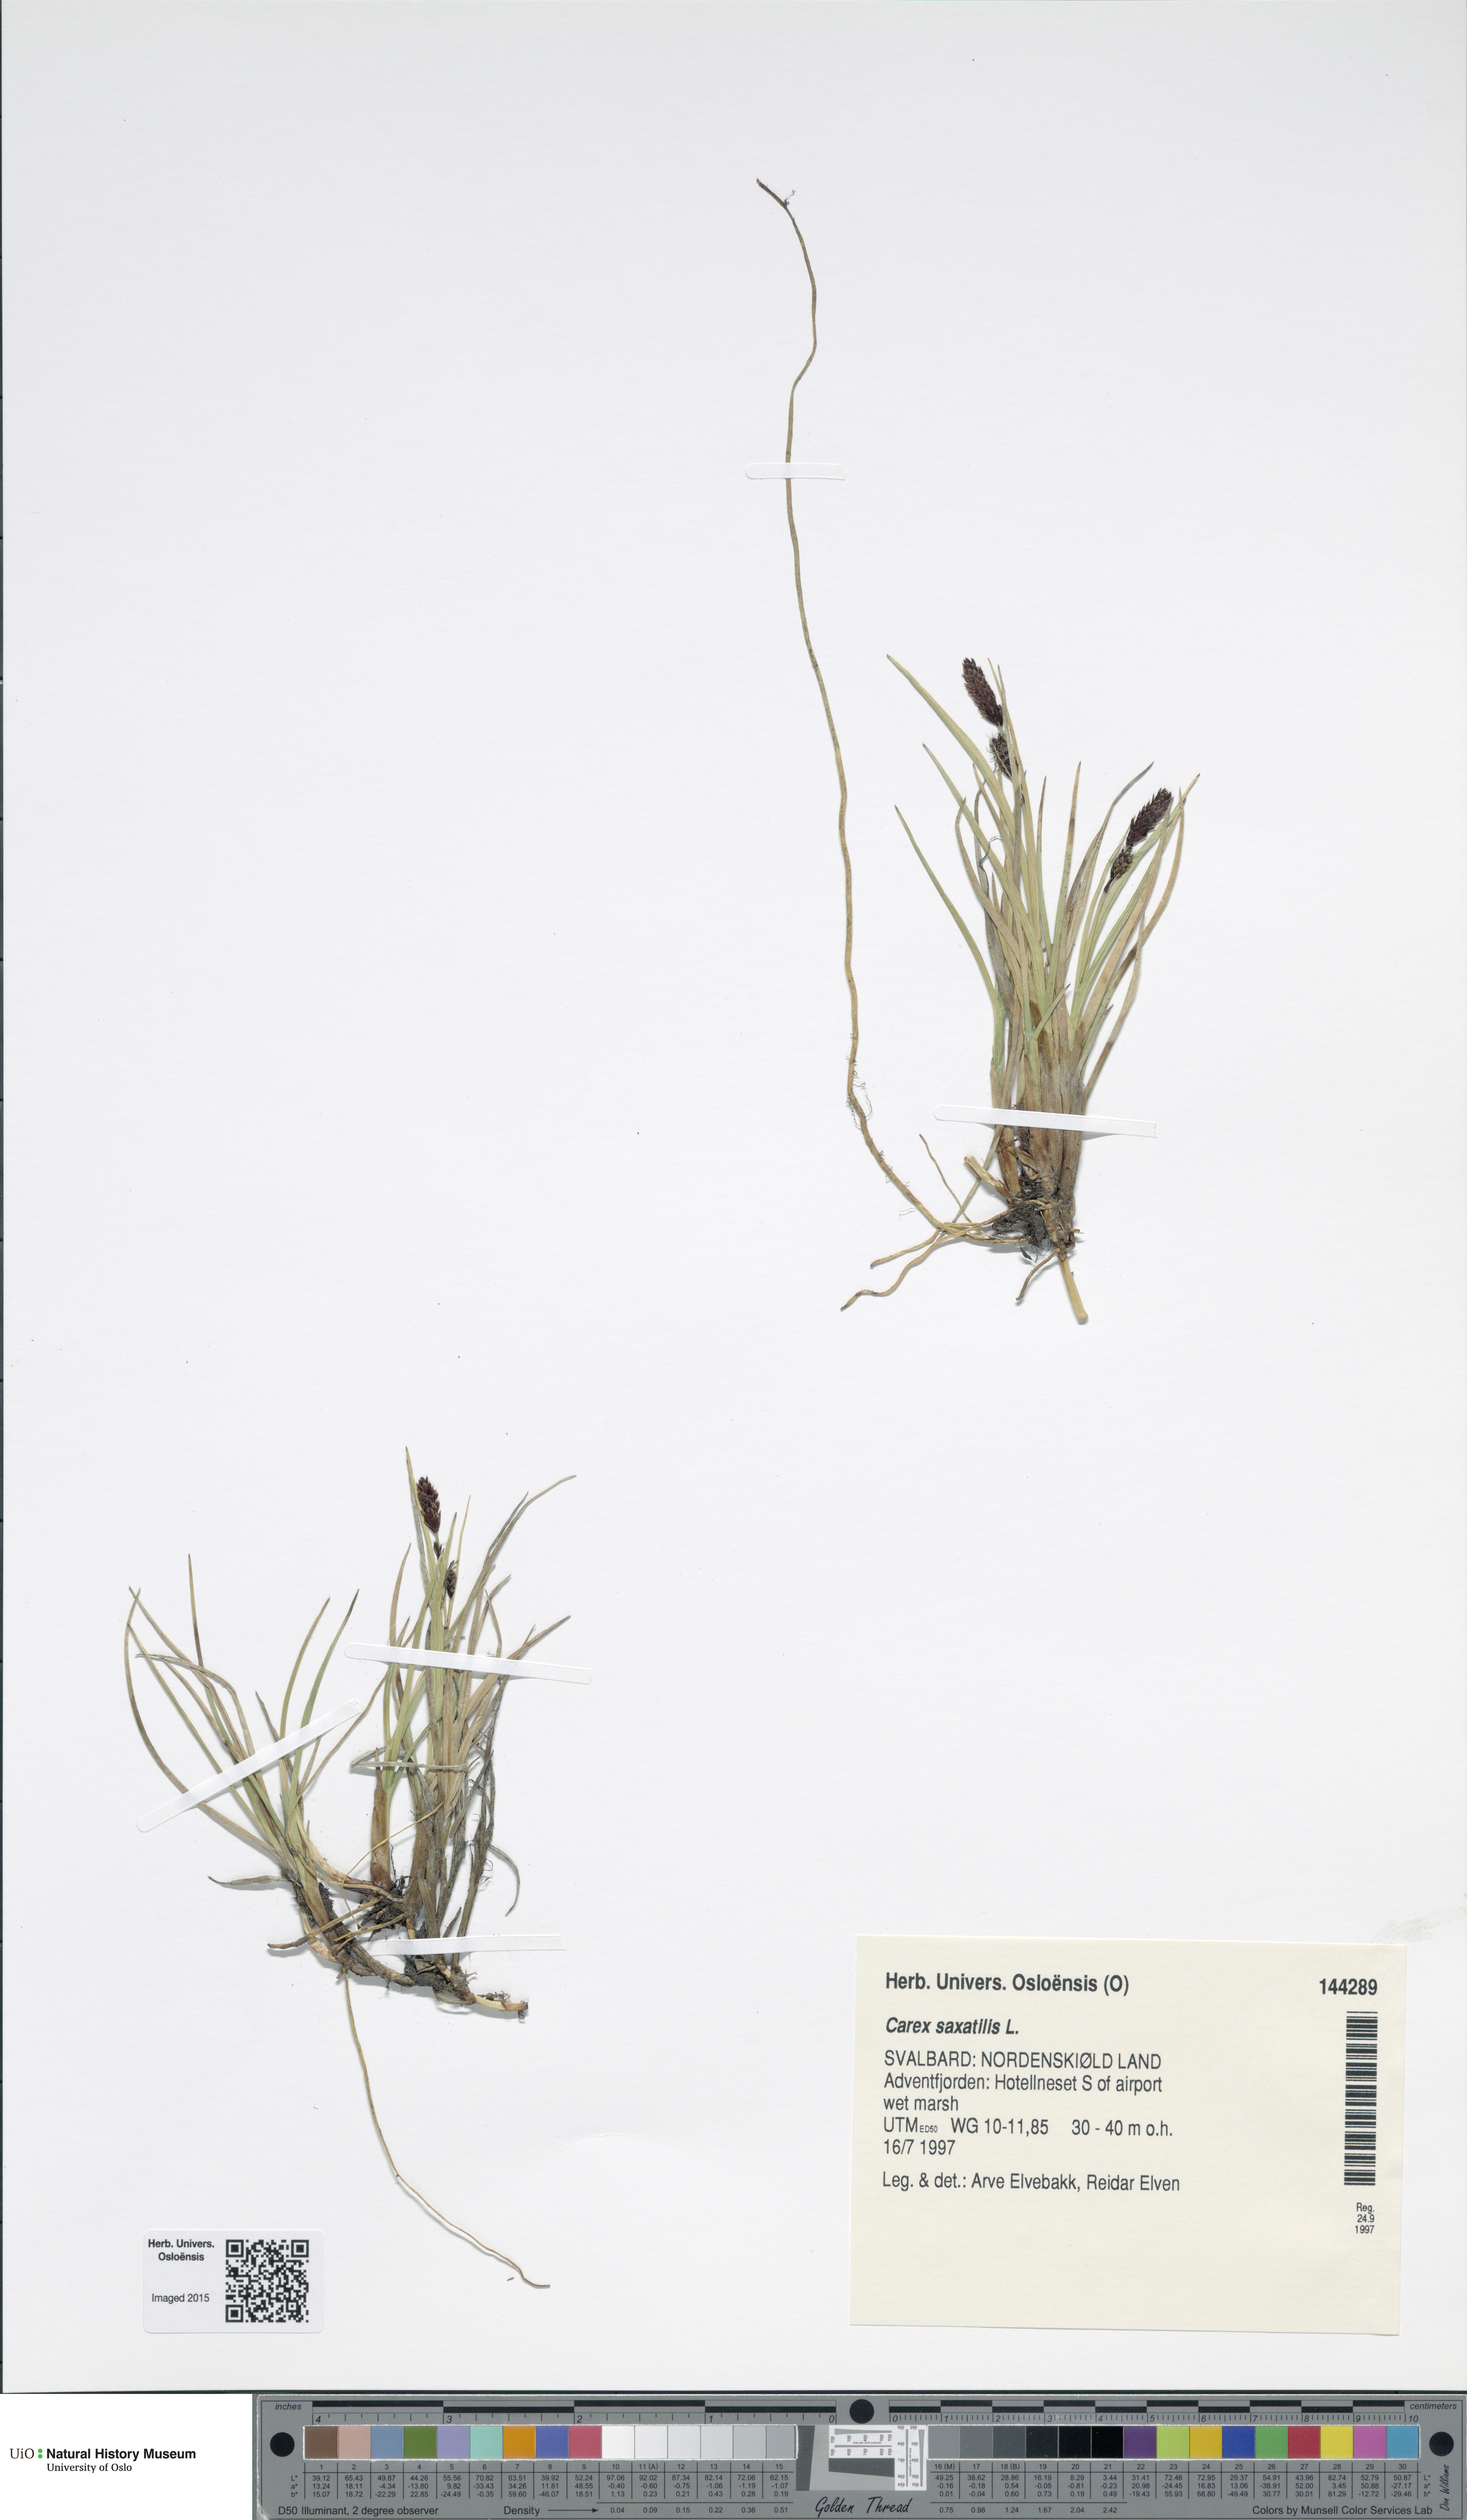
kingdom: Plantae
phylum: Tracheophyta
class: Liliopsida
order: Poales
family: Cyperaceae
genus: Carex
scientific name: Carex saxatilis
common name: Russet sedge
